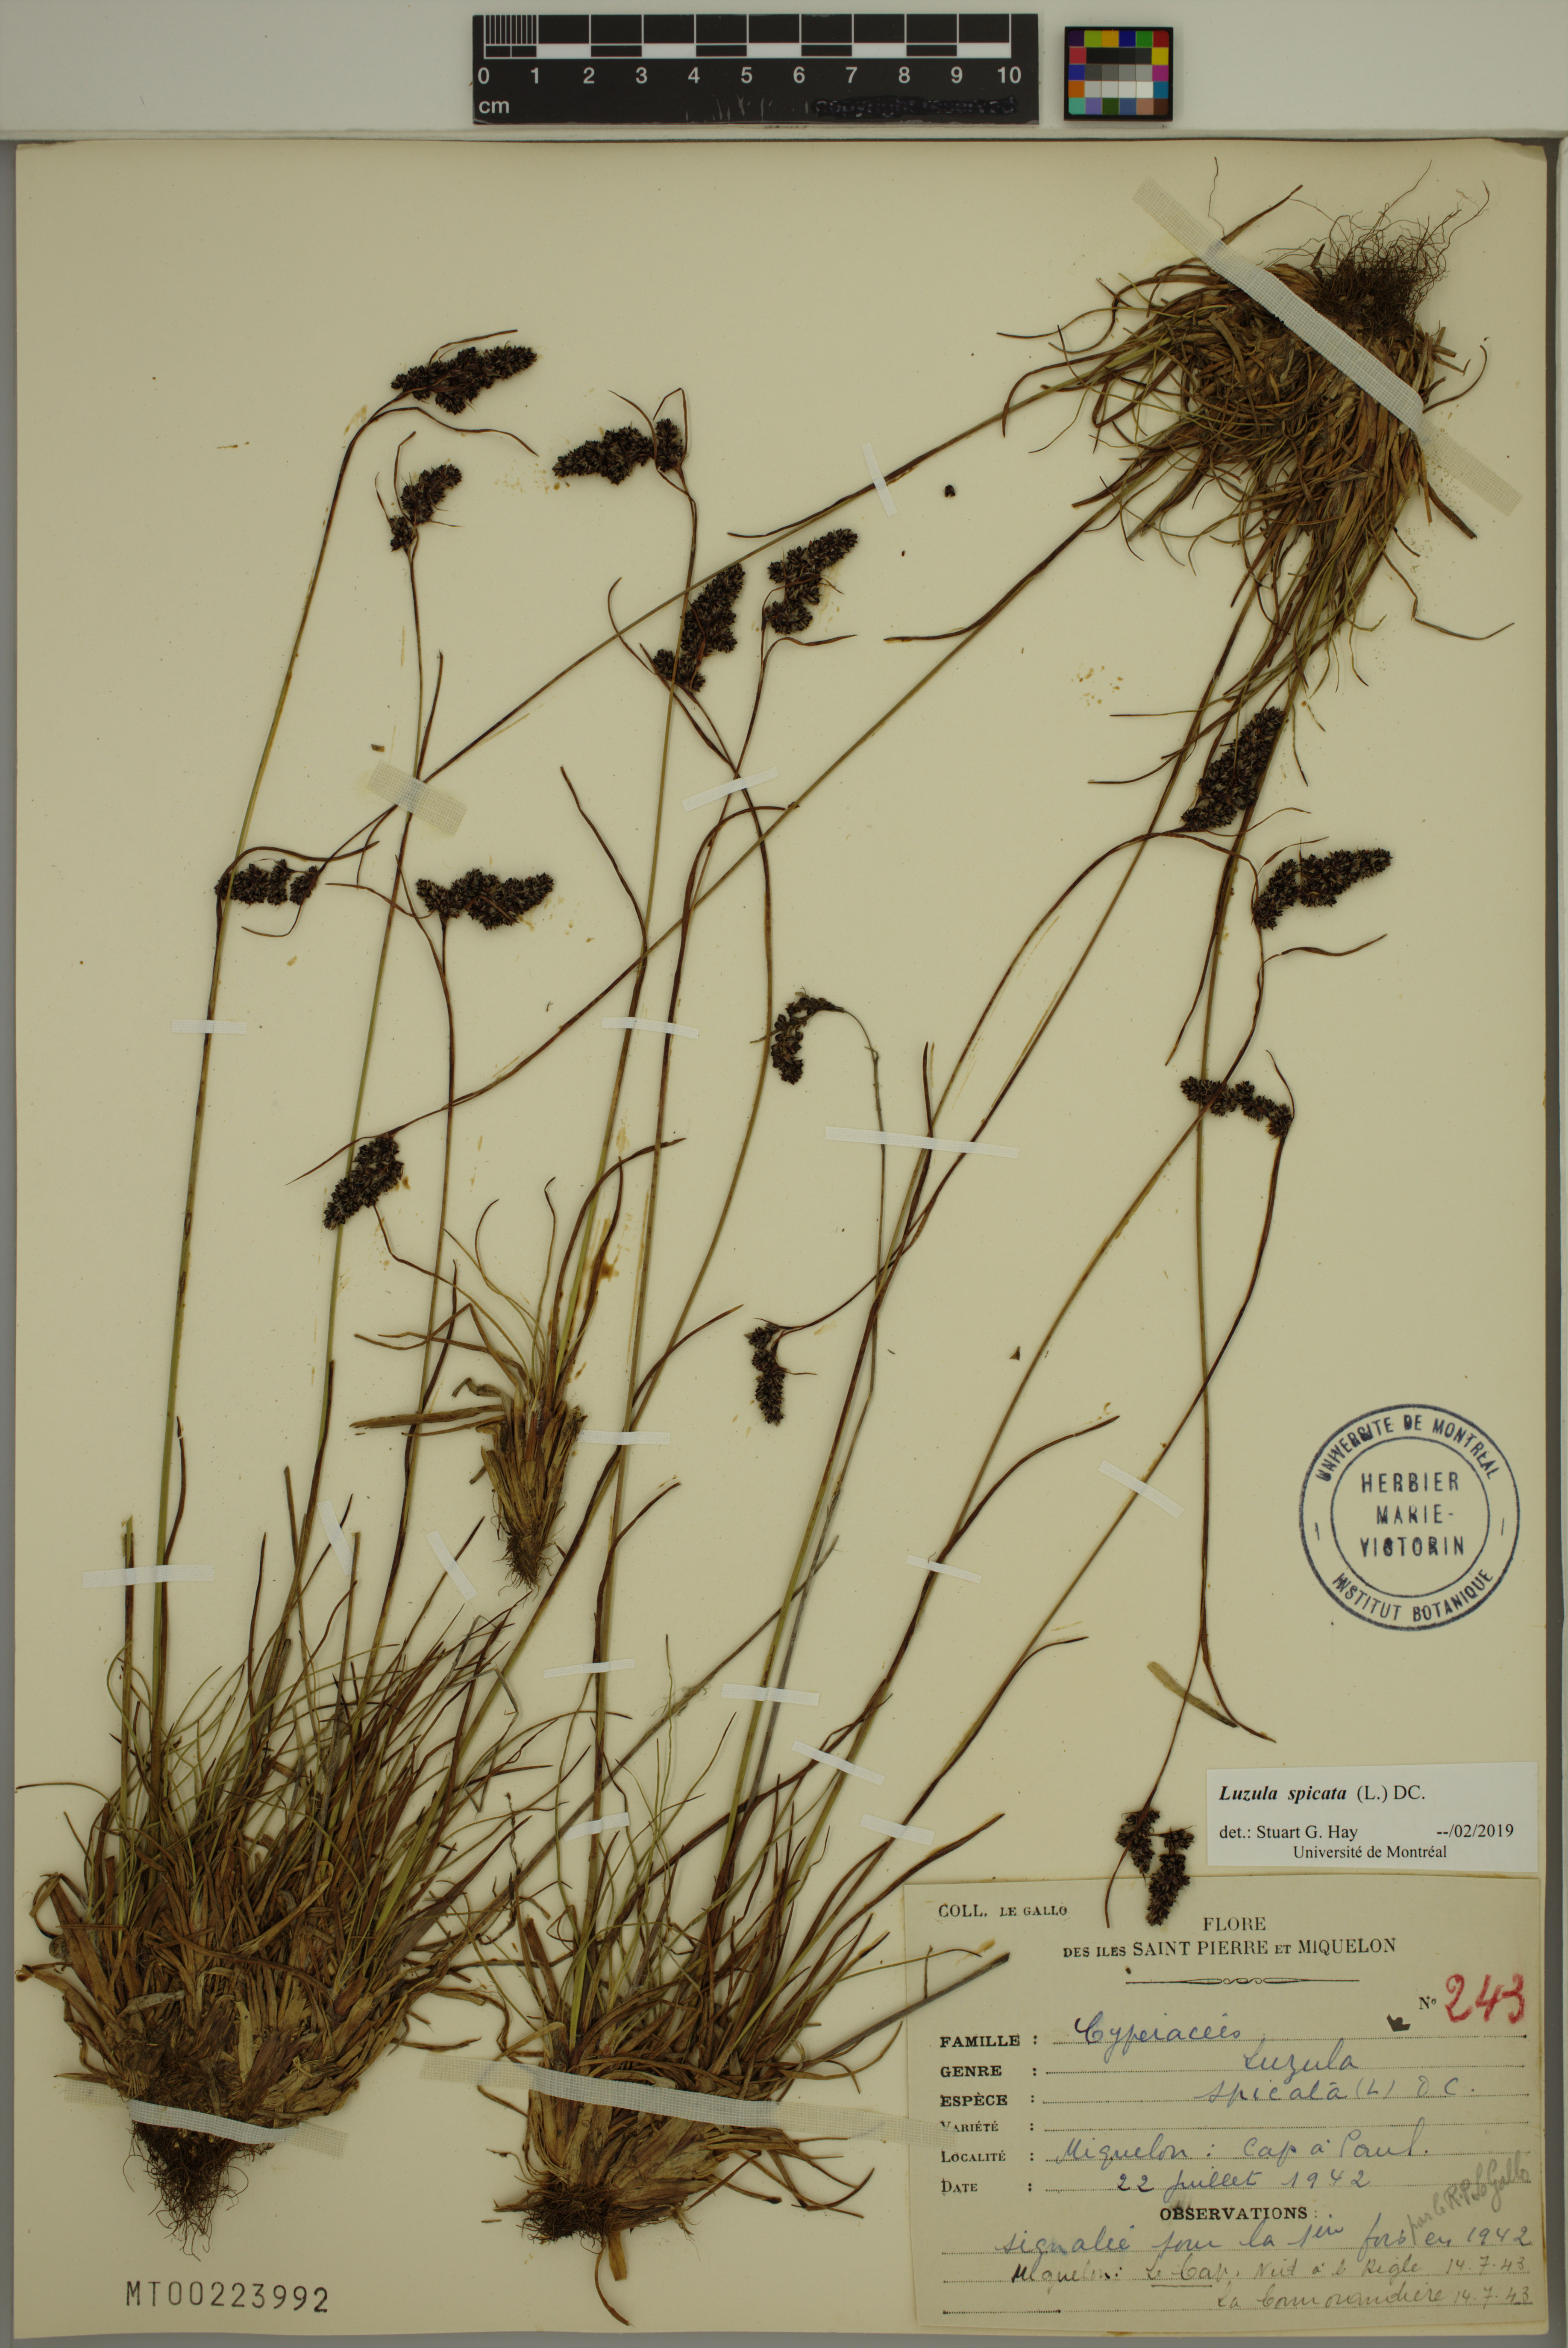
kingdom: Plantae
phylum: Tracheophyta
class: Liliopsida
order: Poales
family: Juncaceae
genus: Luzula
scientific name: Luzula spicata
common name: Spiked wood-rush
